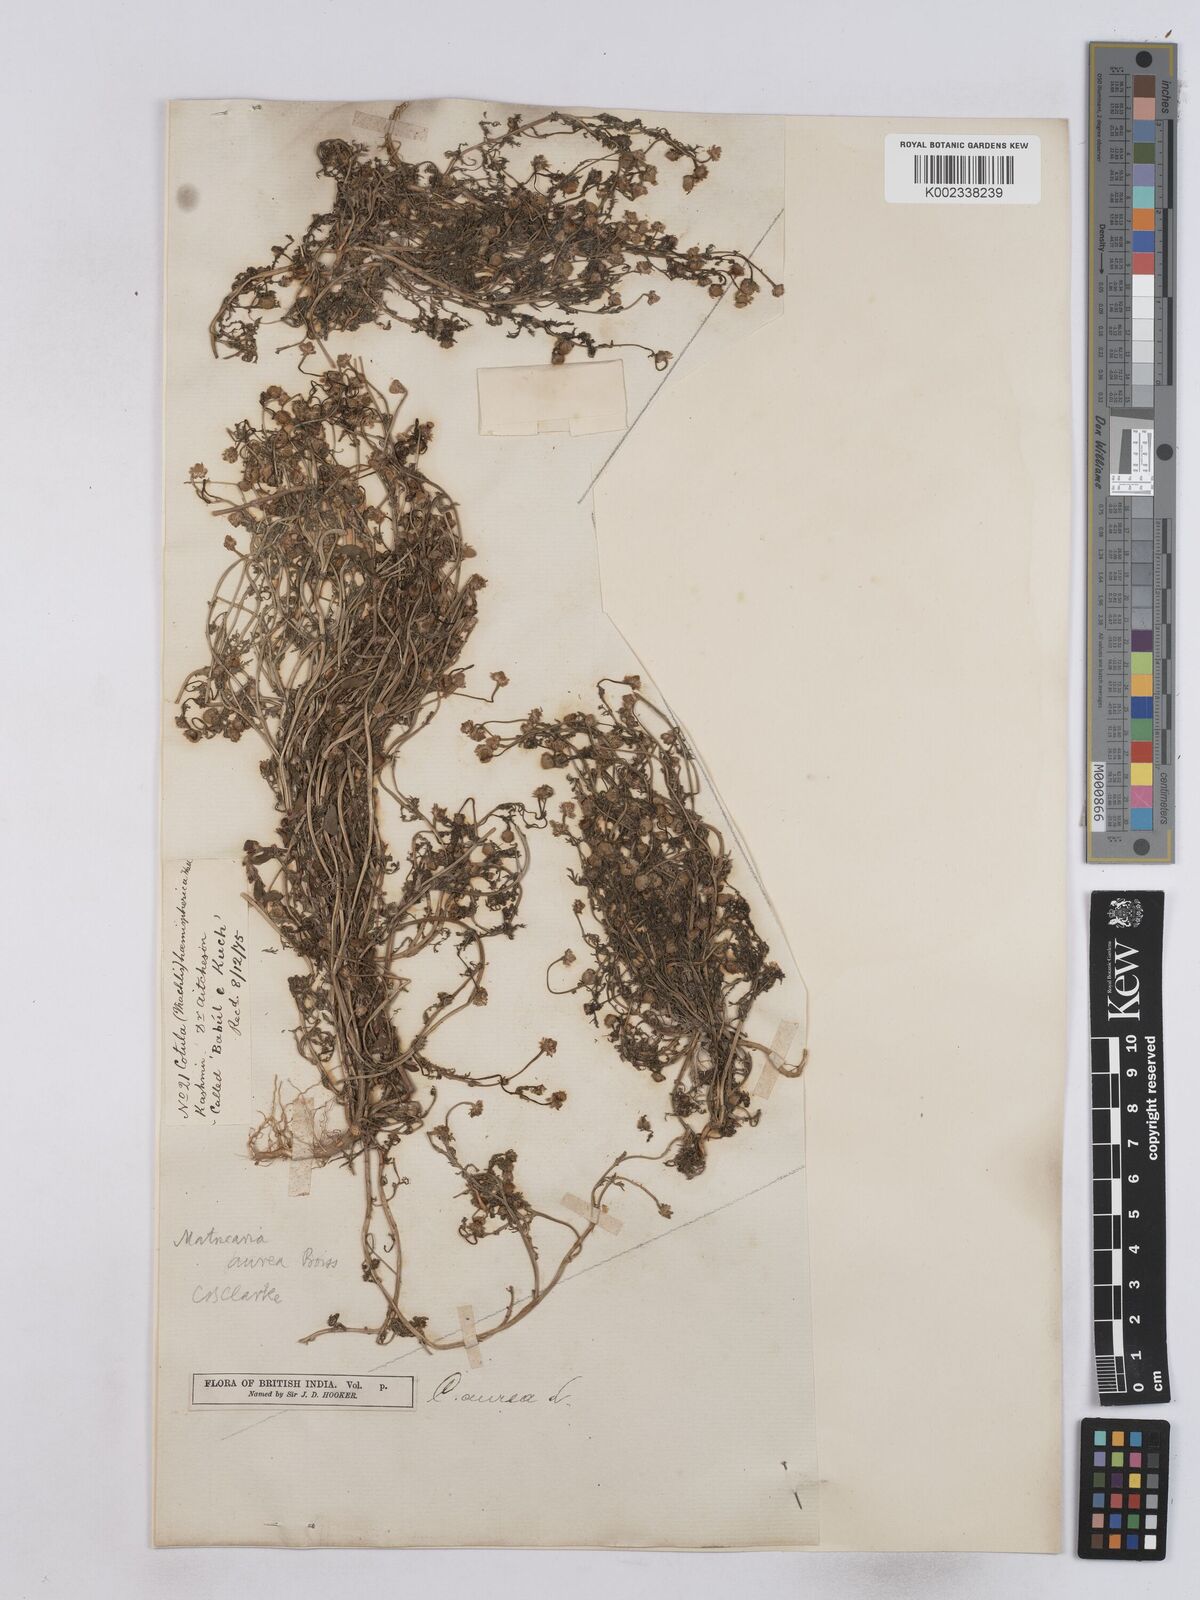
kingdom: Plantae
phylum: Tracheophyta
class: Magnoliopsida
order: Asterales
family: Asteraceae
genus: Matricaria
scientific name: Matricaria aurea
